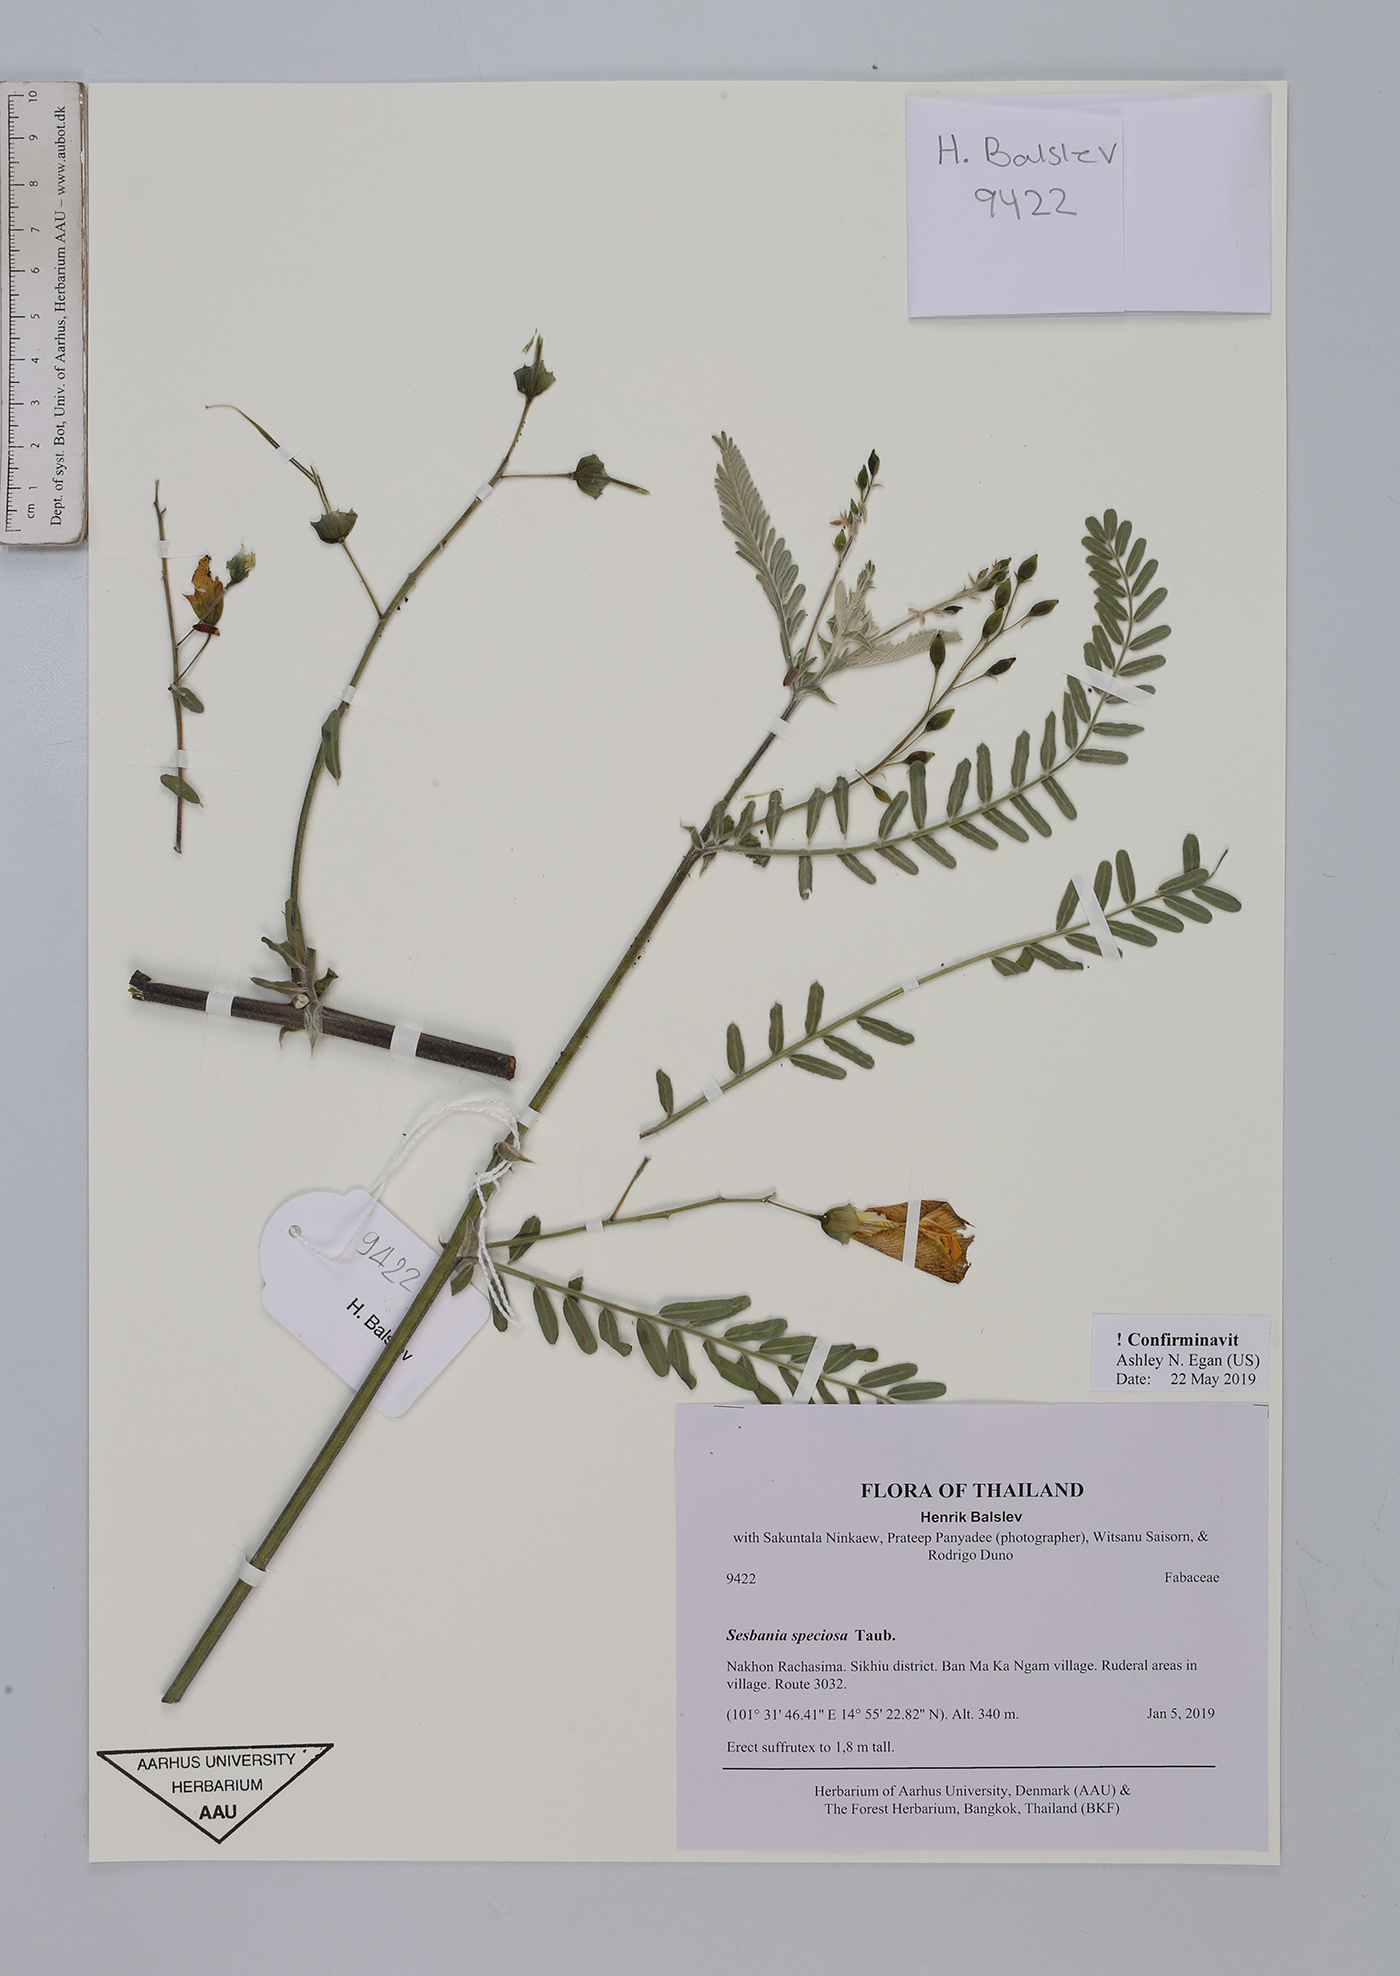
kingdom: Plantae
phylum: Tracheophyta
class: Magnoliopsida
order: Fabales
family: Fabaceae
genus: Sesbania
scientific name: Sesbania speciosa
